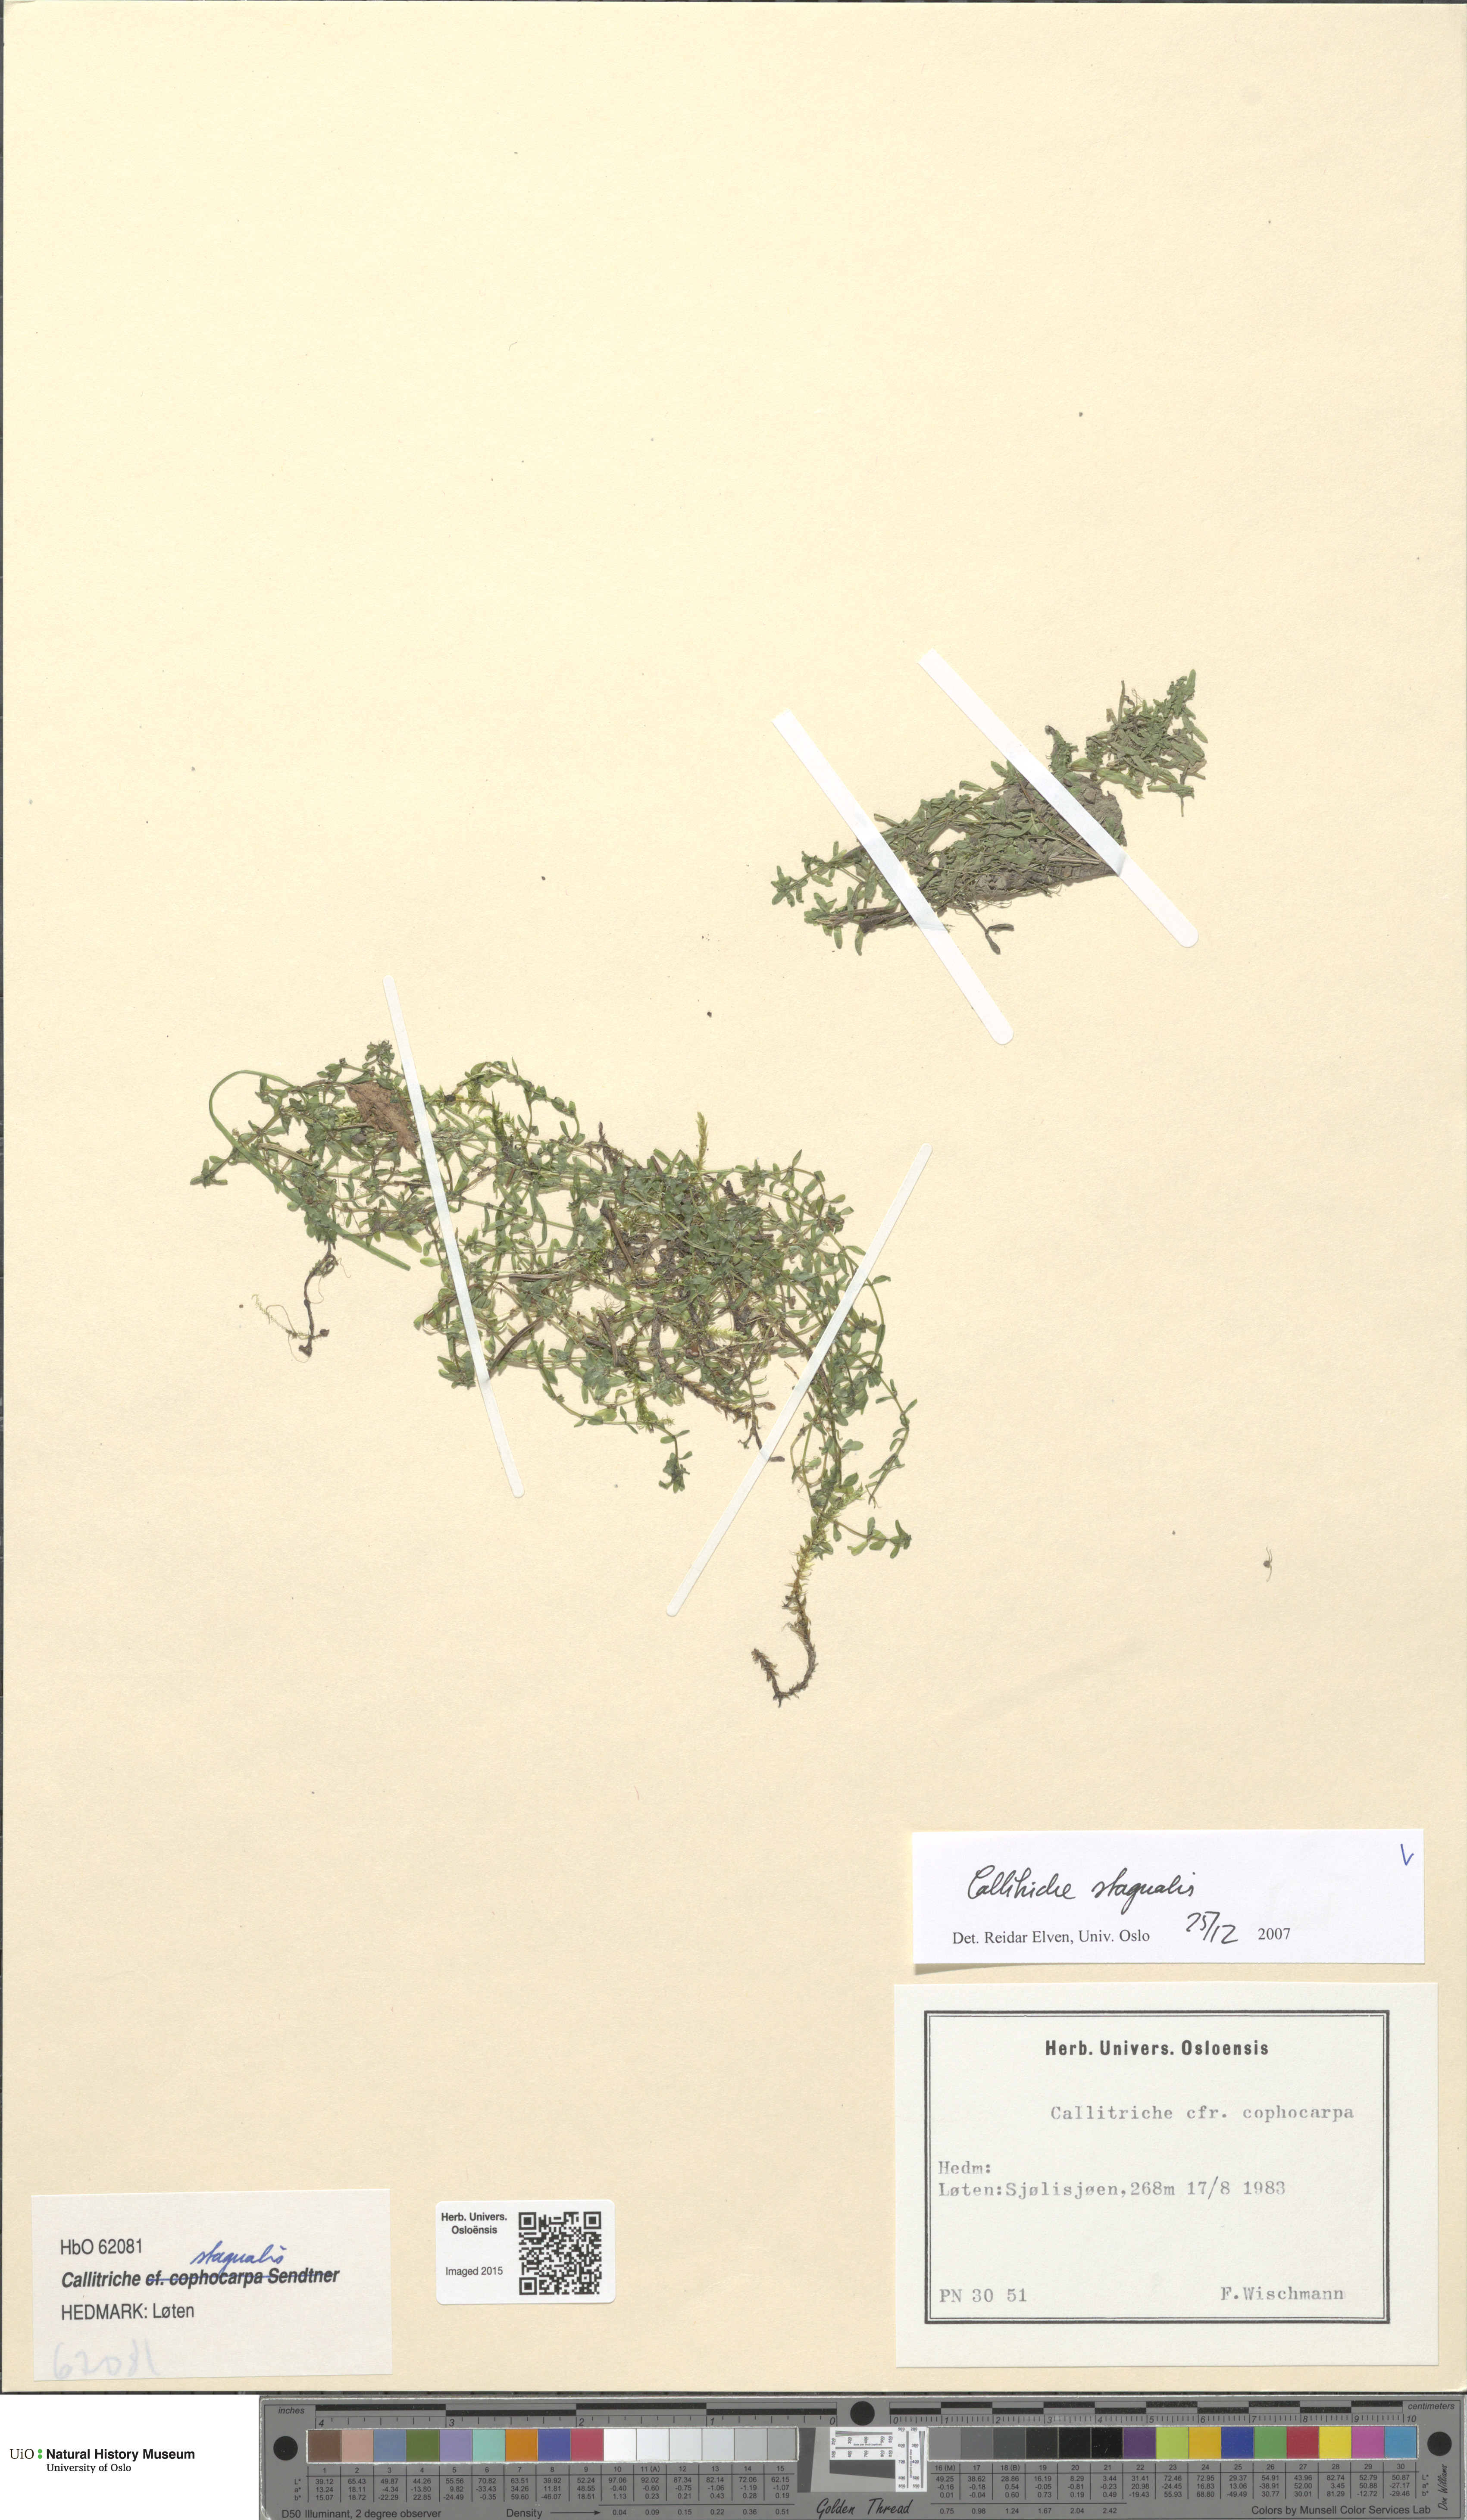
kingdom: Plantae
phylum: Tracheophyta
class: Magnoliopsida
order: Lamiales
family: Plantaginaceae
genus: Callitriche
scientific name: Callitriche stagnalis
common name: Common water-starwort
